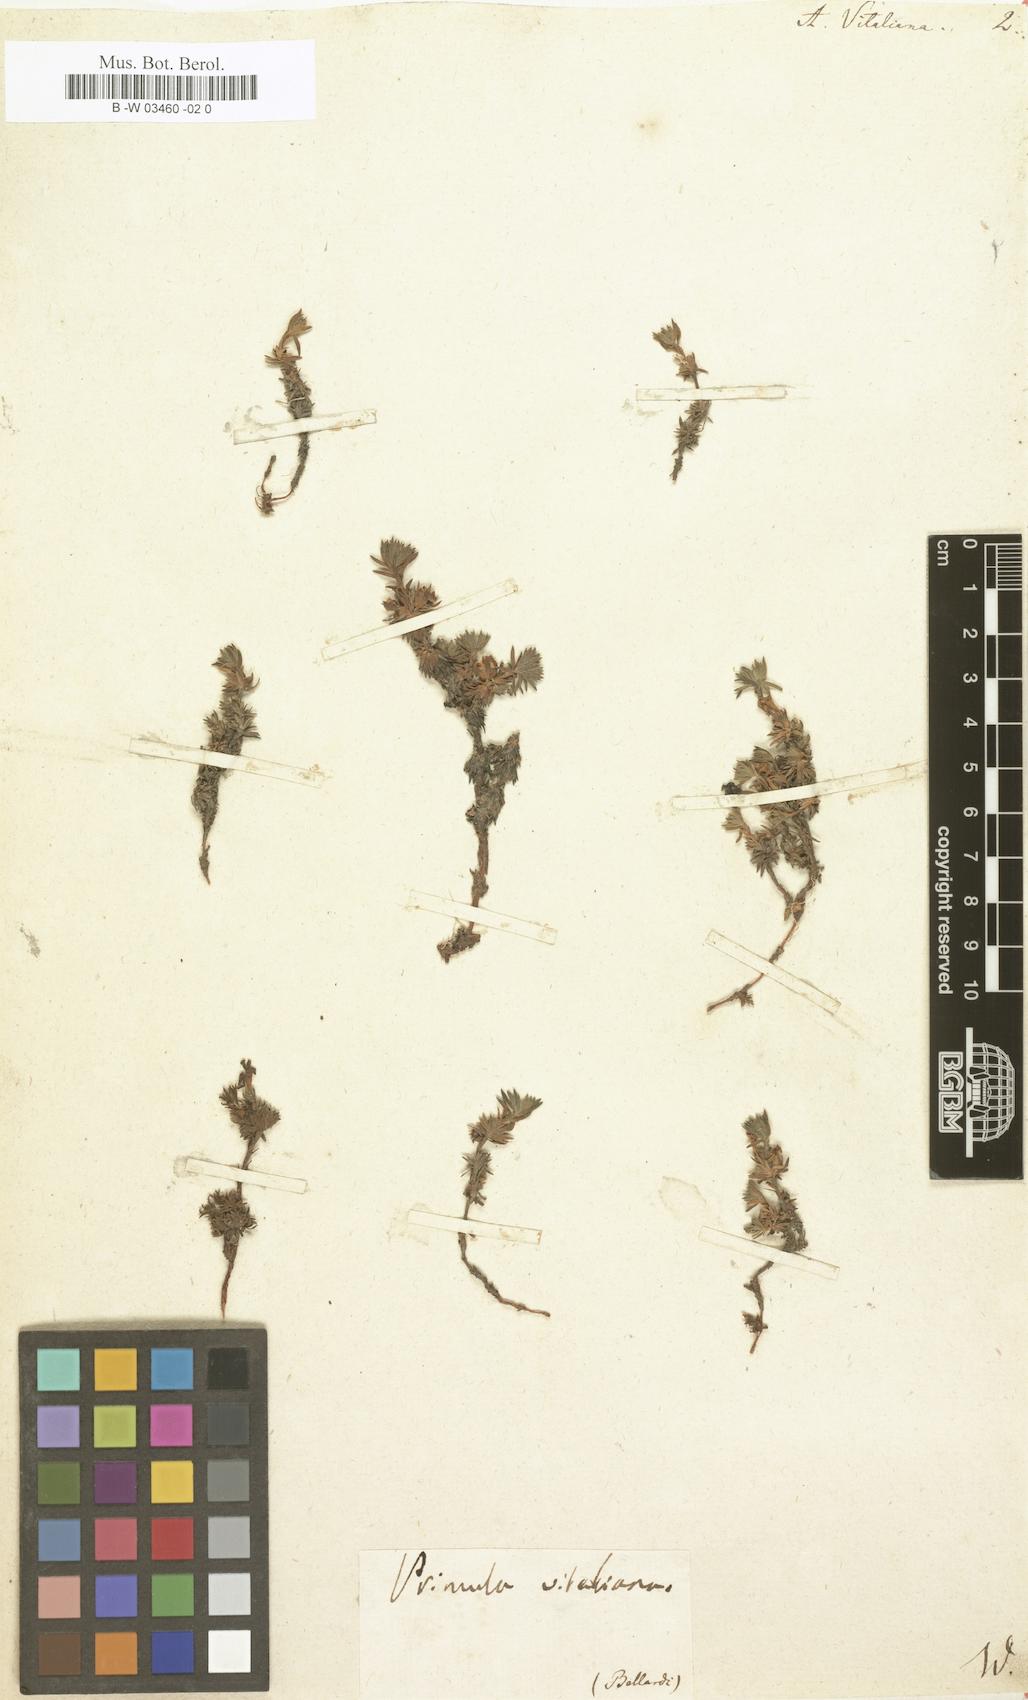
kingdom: Plantae
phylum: Tracheophyta
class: Magnoliopsida
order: Ericales
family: Primulaceae
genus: Androsace
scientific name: Androsace vitaliana
